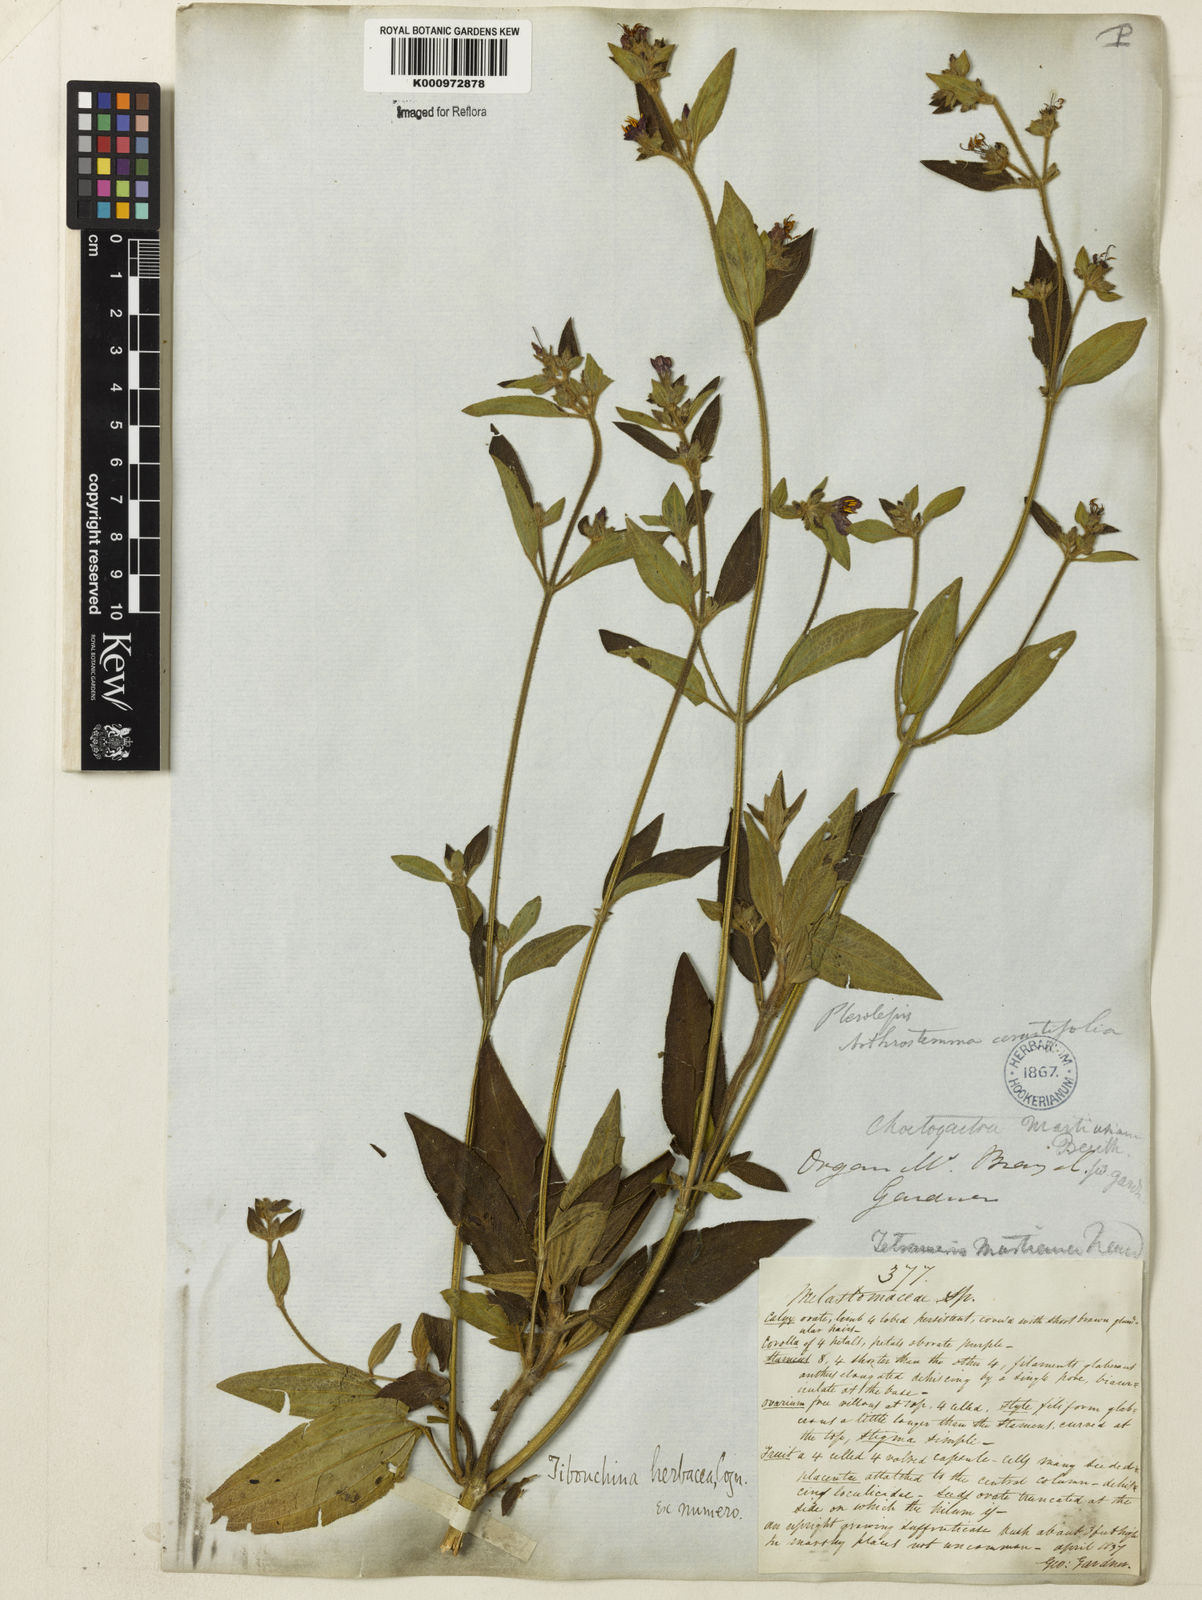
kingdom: Plantae
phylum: Tracheophyta
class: Magnoliopsida
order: Myrtales
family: Melastomataceae
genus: Chaetogastra
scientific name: Chaetogastra herbacea
